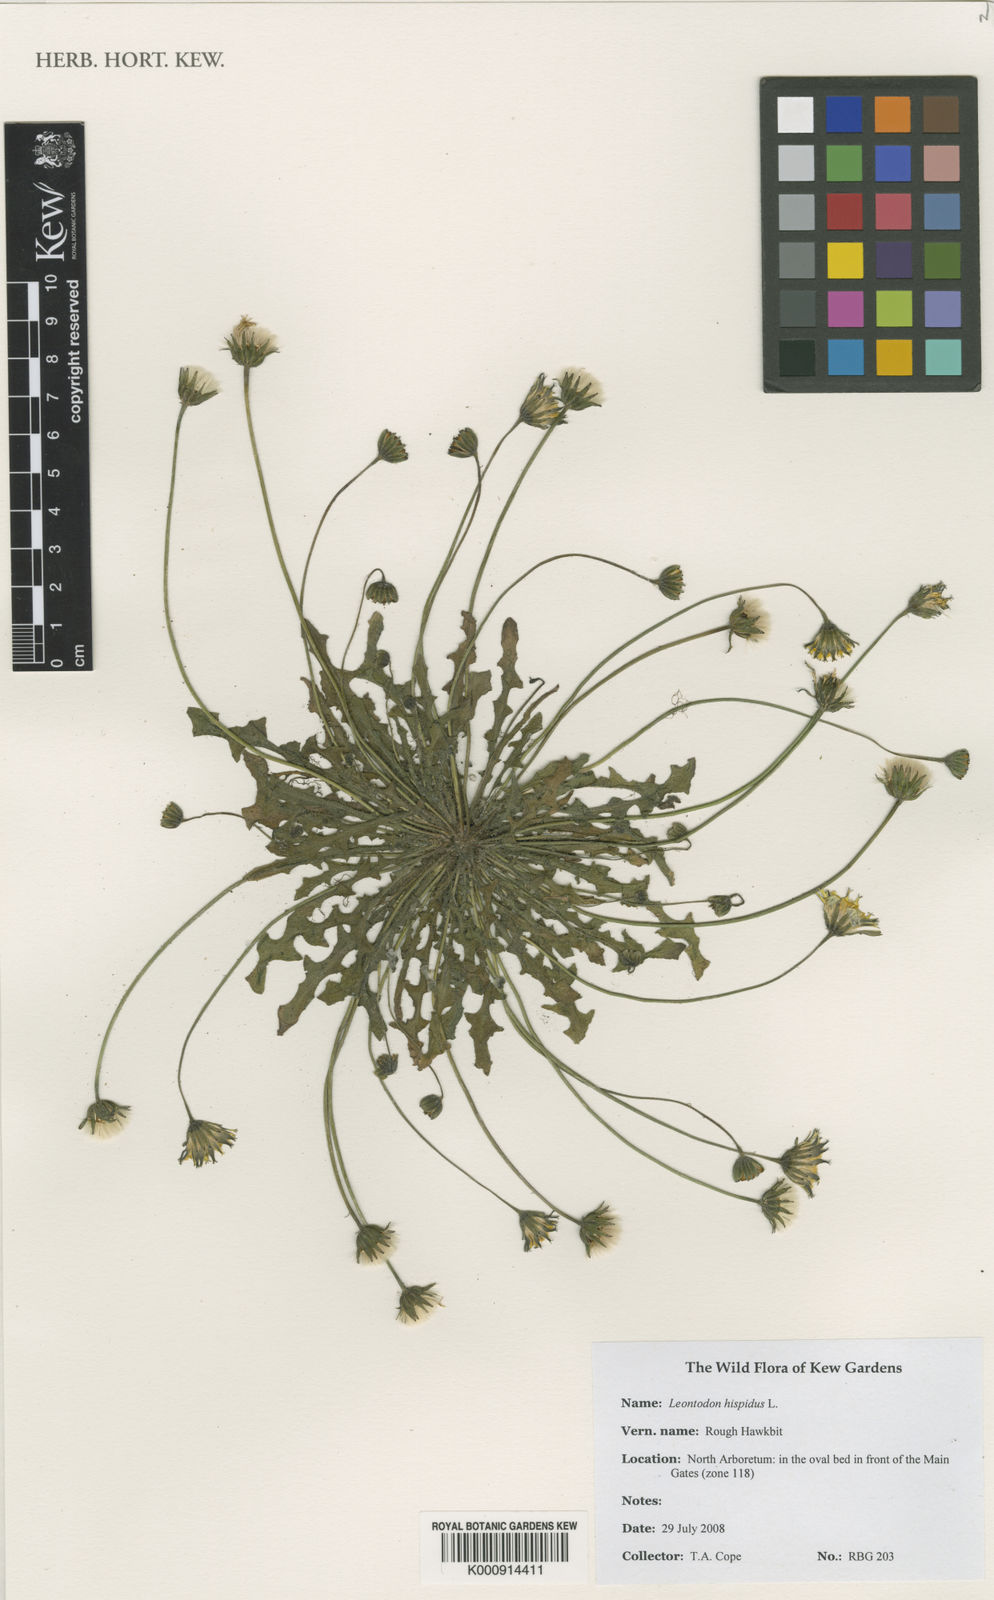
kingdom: Plantae
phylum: Tracheophyta
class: Magnoliopsida
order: Asterales
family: Asteraceae
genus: Leontodon
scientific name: Leontodon hispidus
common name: Rough hawkbit
